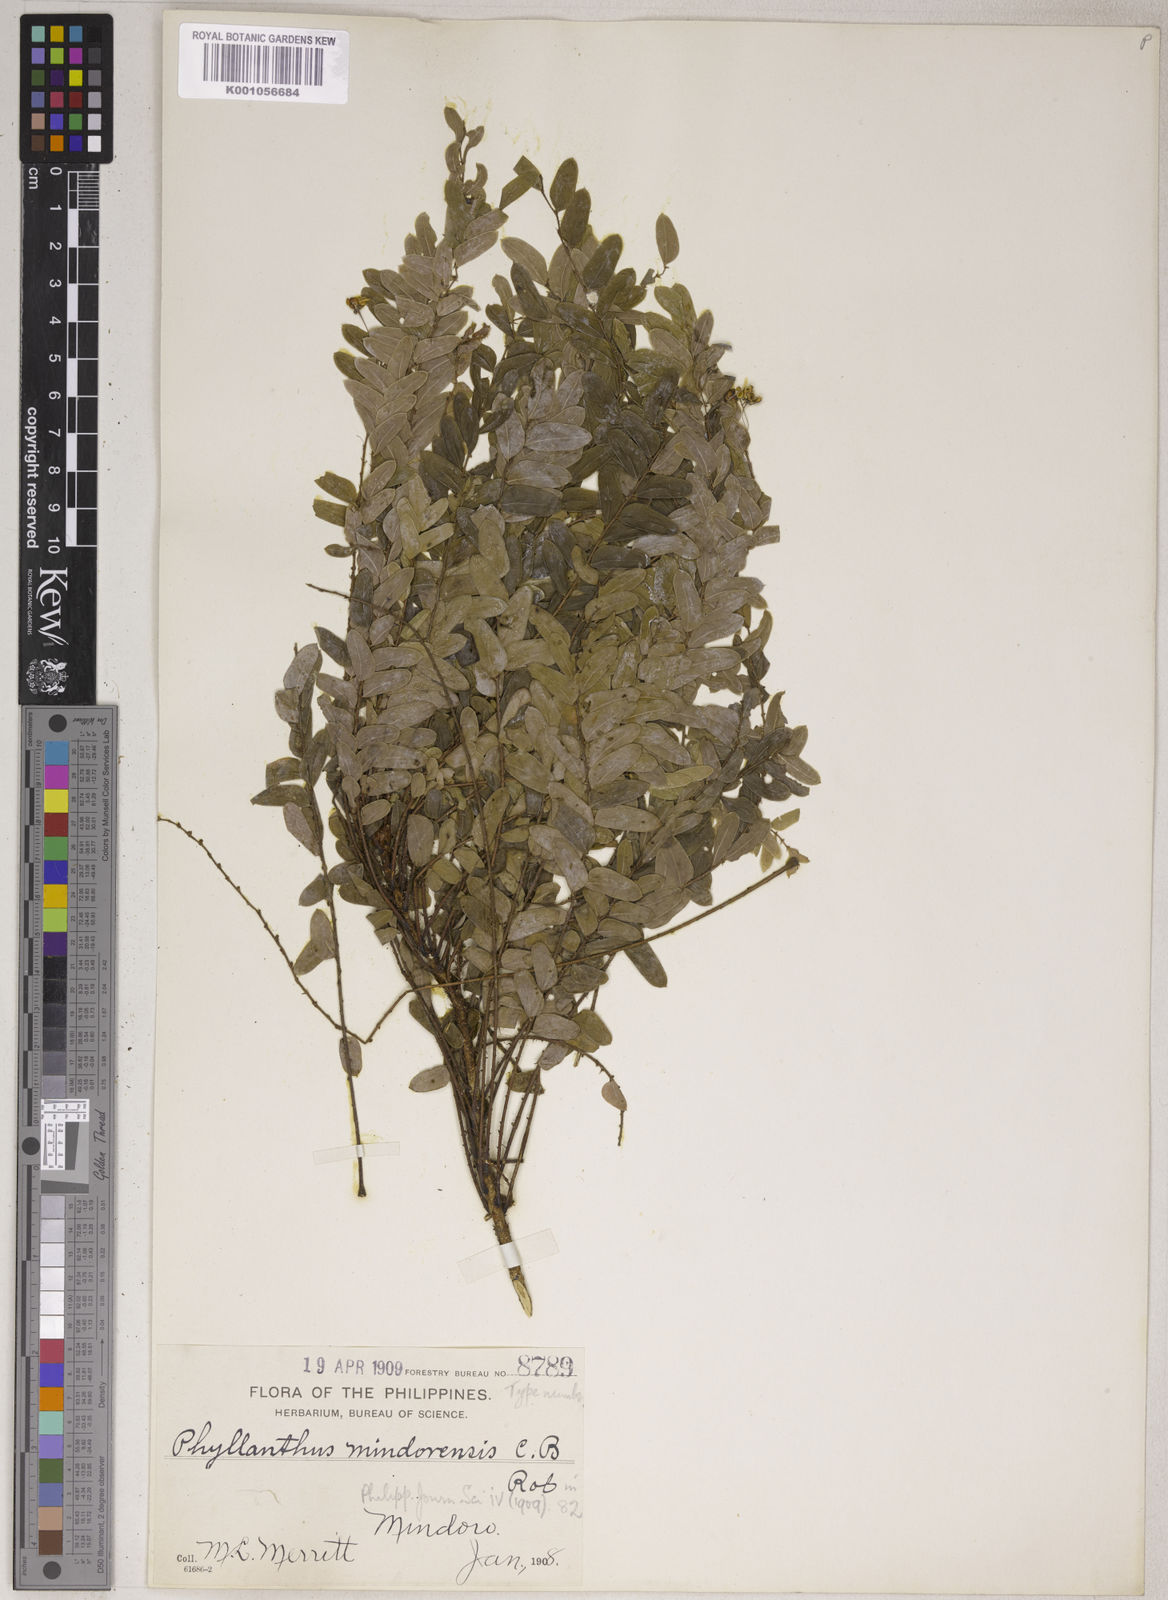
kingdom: Plantae
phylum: Tracheophyta
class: Magnoliopsida
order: Malpighiales
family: Phyllanthaceae
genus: Phyllanthus
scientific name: Phyllanthus celebicus
